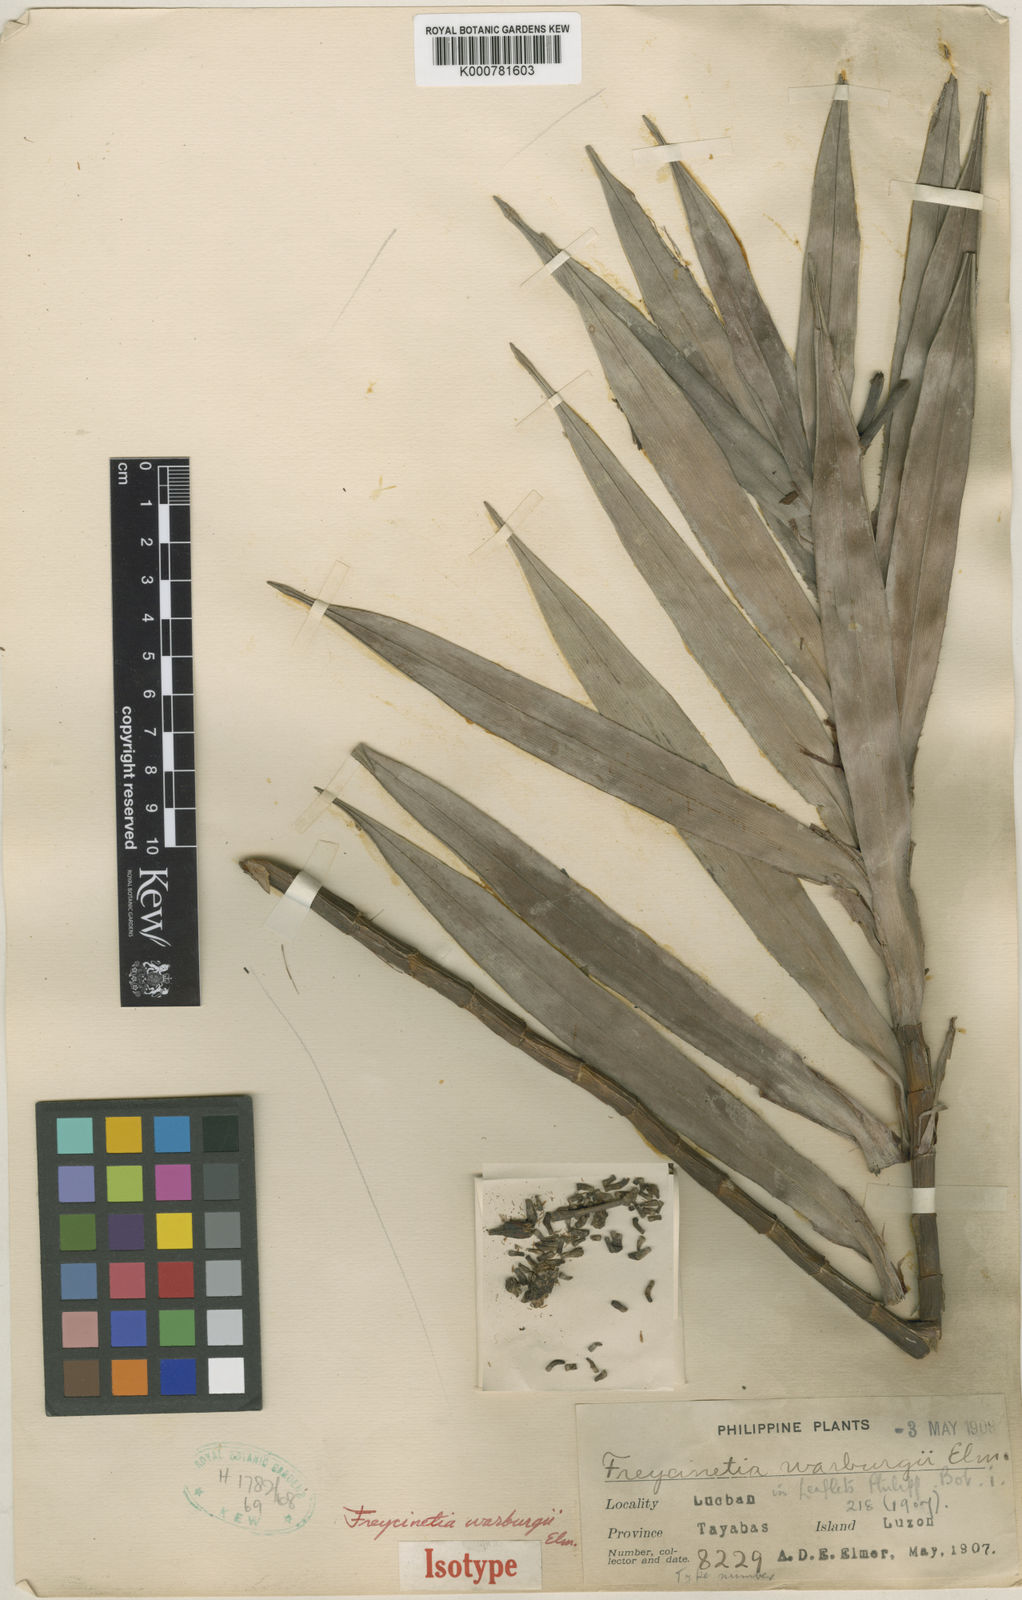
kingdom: Plantae
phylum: Tracheophyta
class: Liliopsida
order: Pandanales
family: Pandanaceae
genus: Freycinetia
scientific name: Freycinetia warburgii
